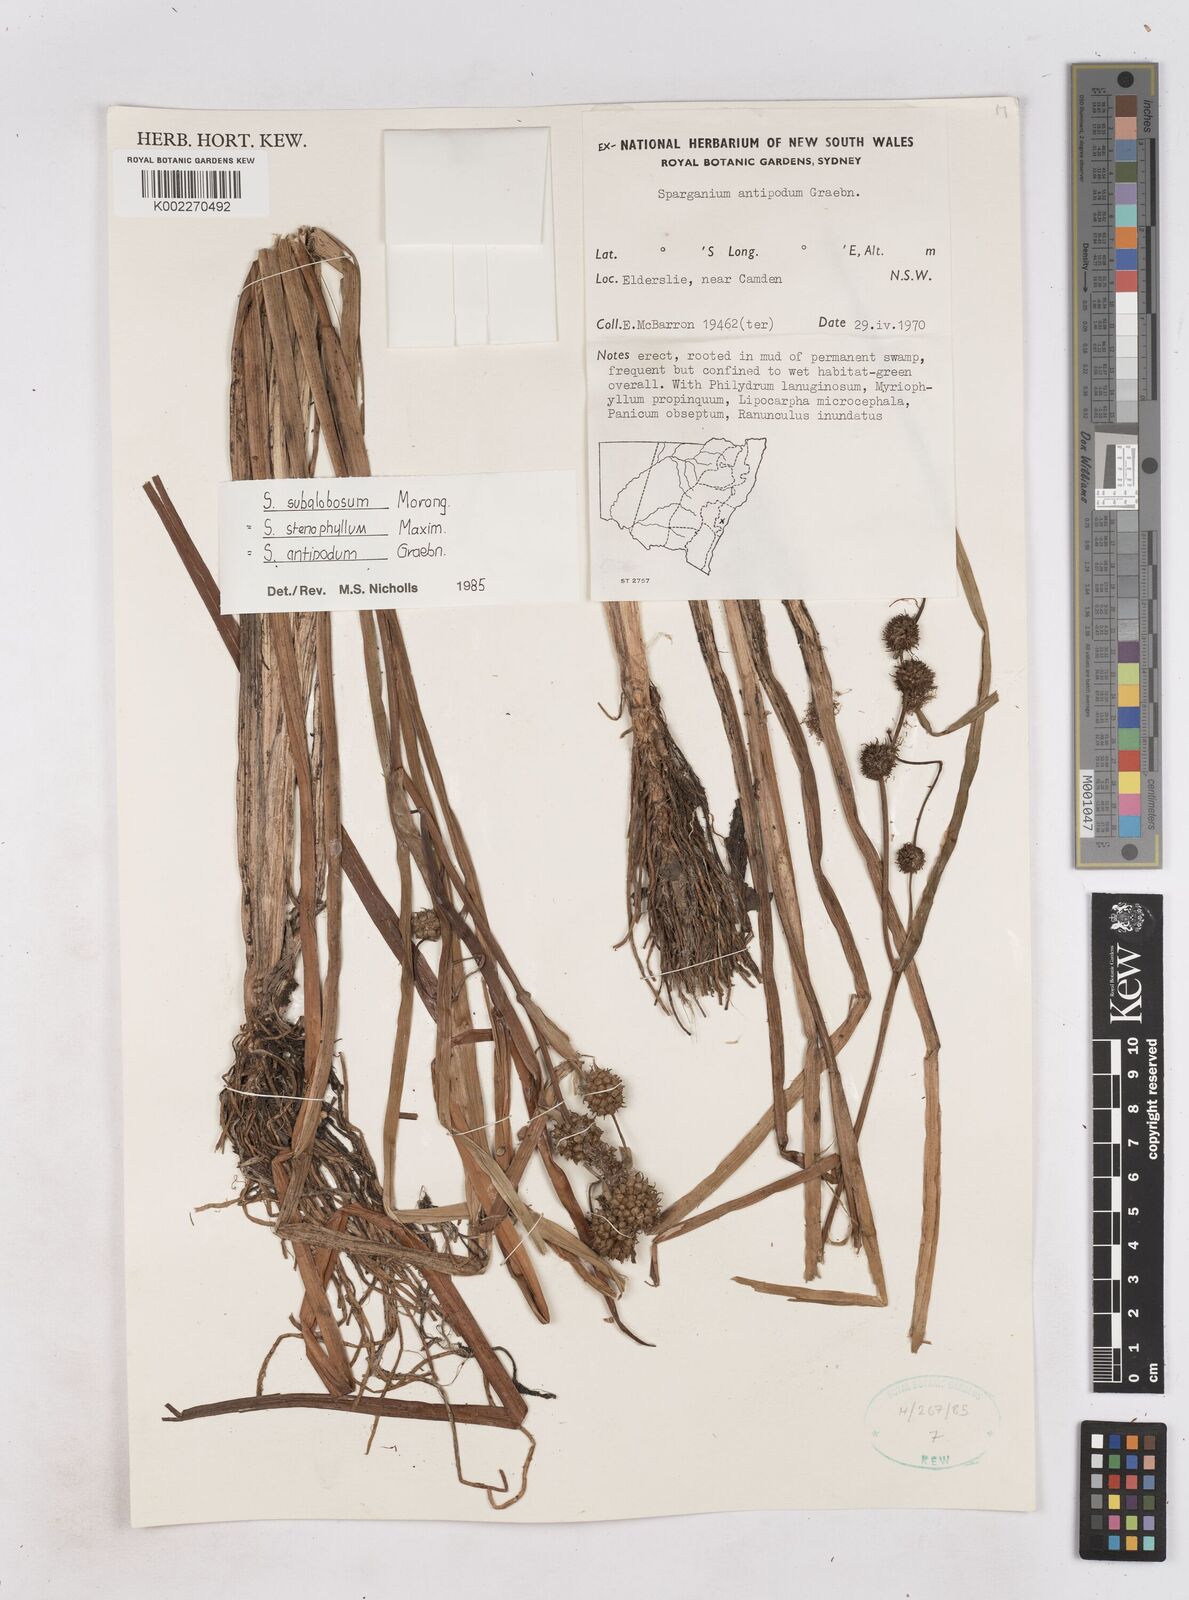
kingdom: Plantae
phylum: Tracheophyta
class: Liliopsida
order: Poales
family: Typhaceae
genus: Sparganium
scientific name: Sparganium subglobosum
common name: Burr­-reed
